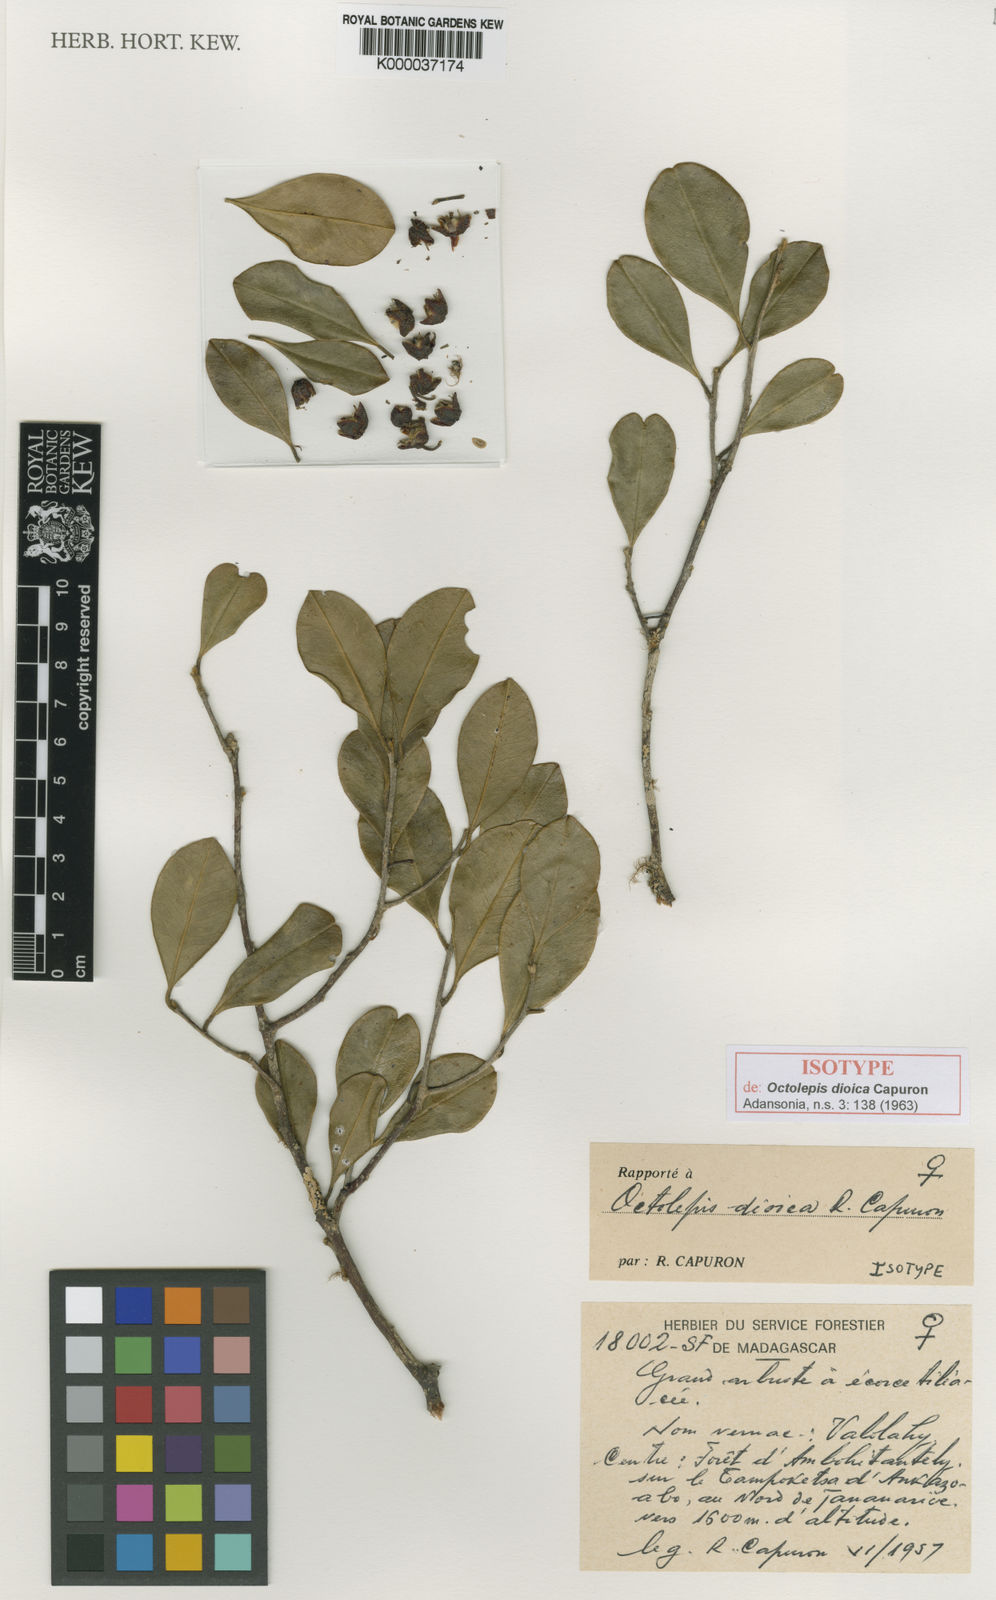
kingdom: Plantae
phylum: Tracheophyta
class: Magnoliopsida
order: Malvales
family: Thymelaeaceae
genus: Octolepis
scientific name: Octolepis dioica
